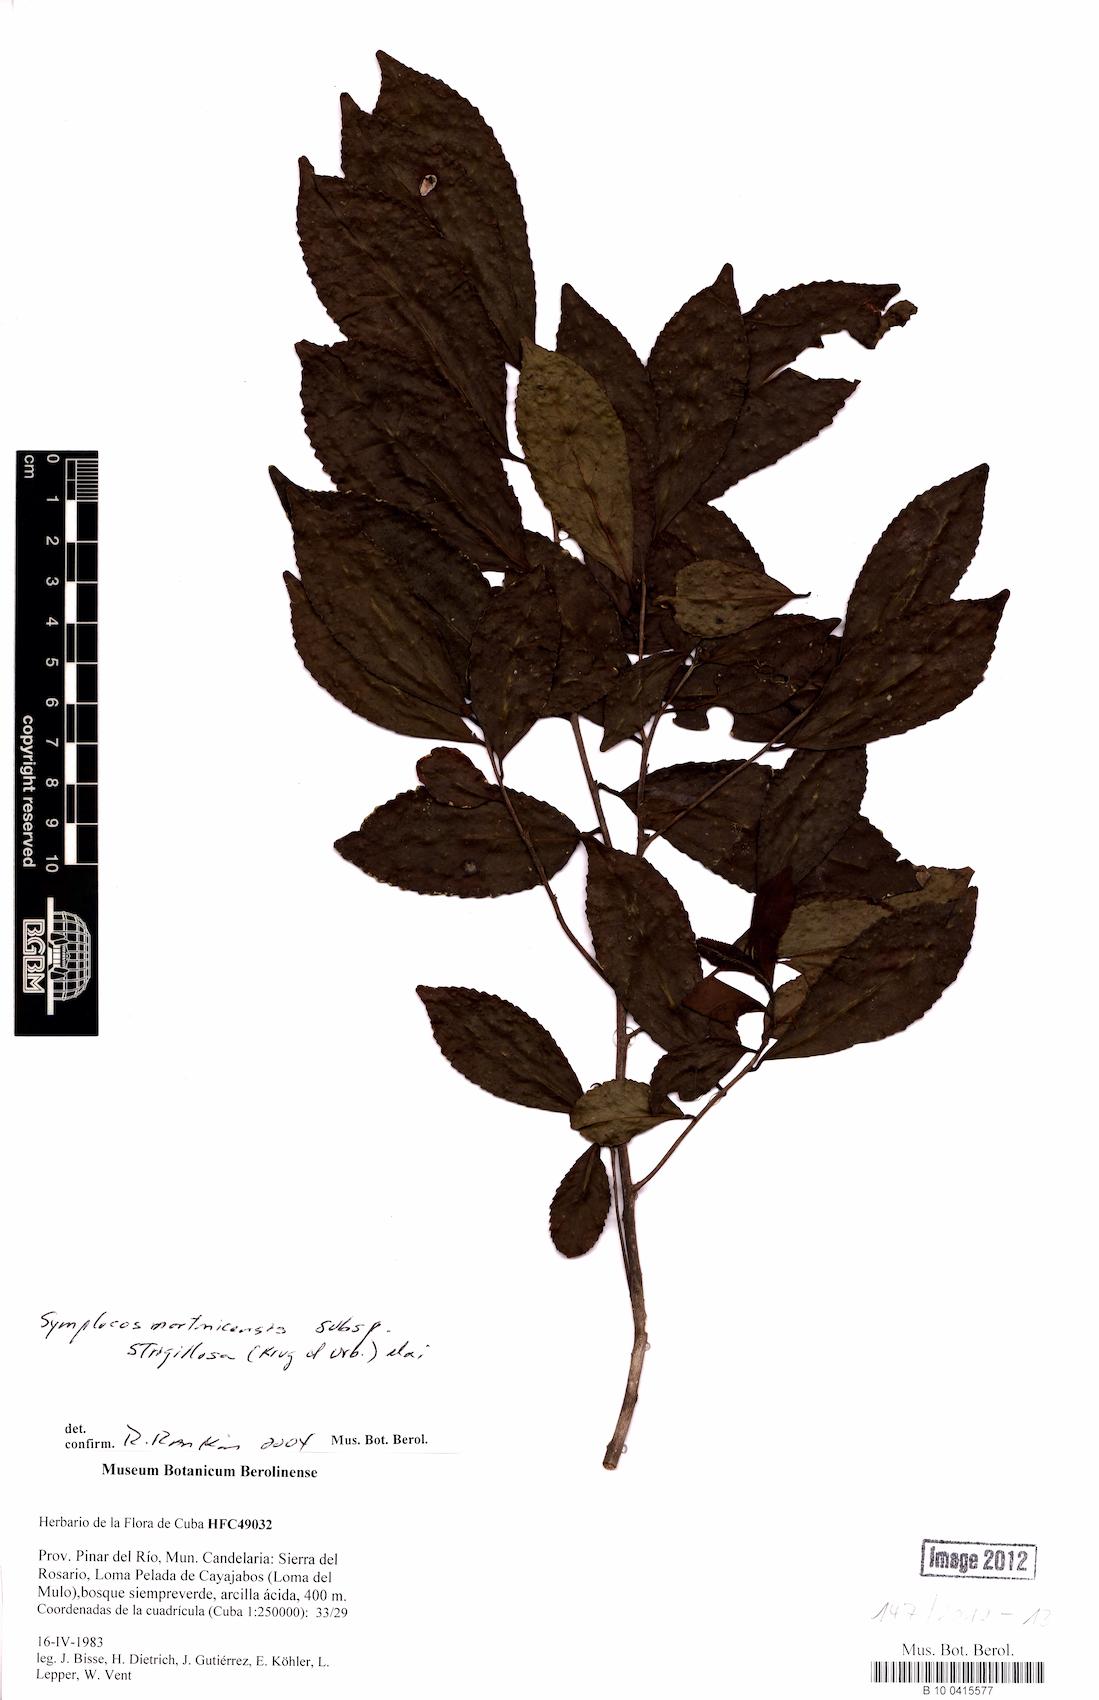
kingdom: Plantae
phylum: Tracheophyta
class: Magnoliopsida
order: Ericales
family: Symplocaceae
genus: Symplocos
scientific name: Symplocos jurgensenii
